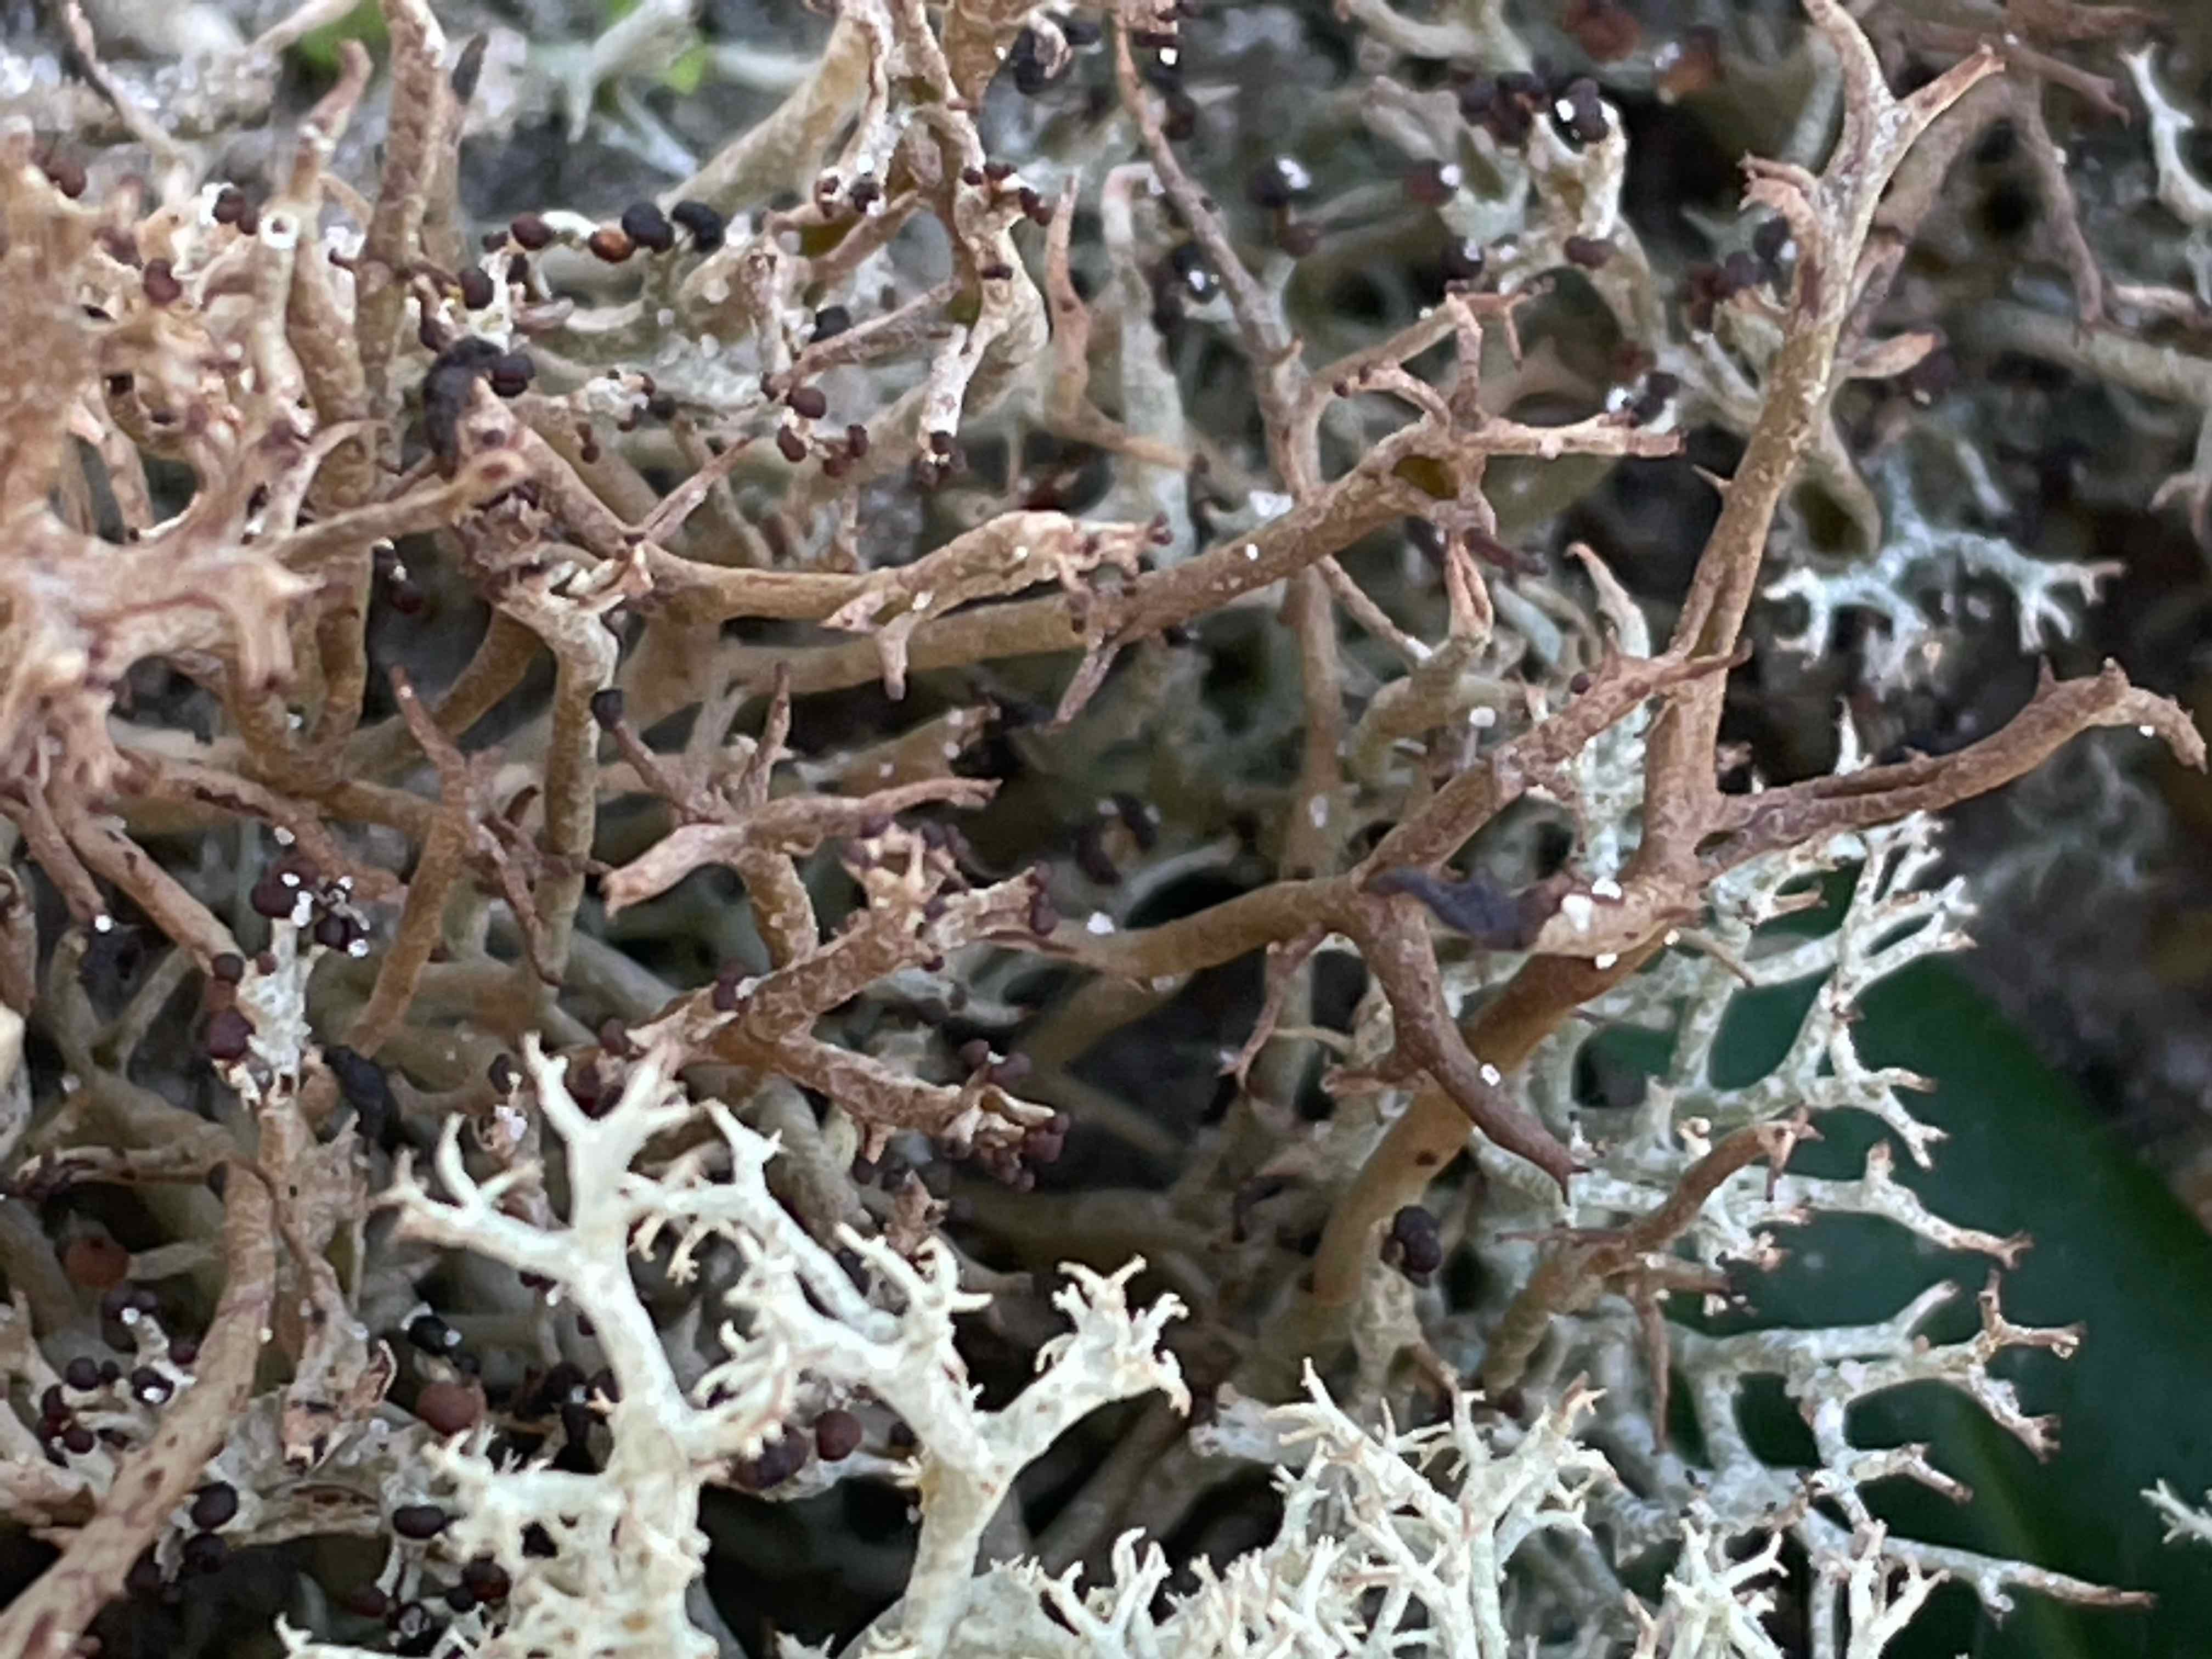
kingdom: Fungi
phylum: Ascomycota
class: Lecanoromycetes
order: Lecanorales
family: Cladoniaceae
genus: Cladonia
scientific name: Cladonia furcata
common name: kløftet bægerlav
